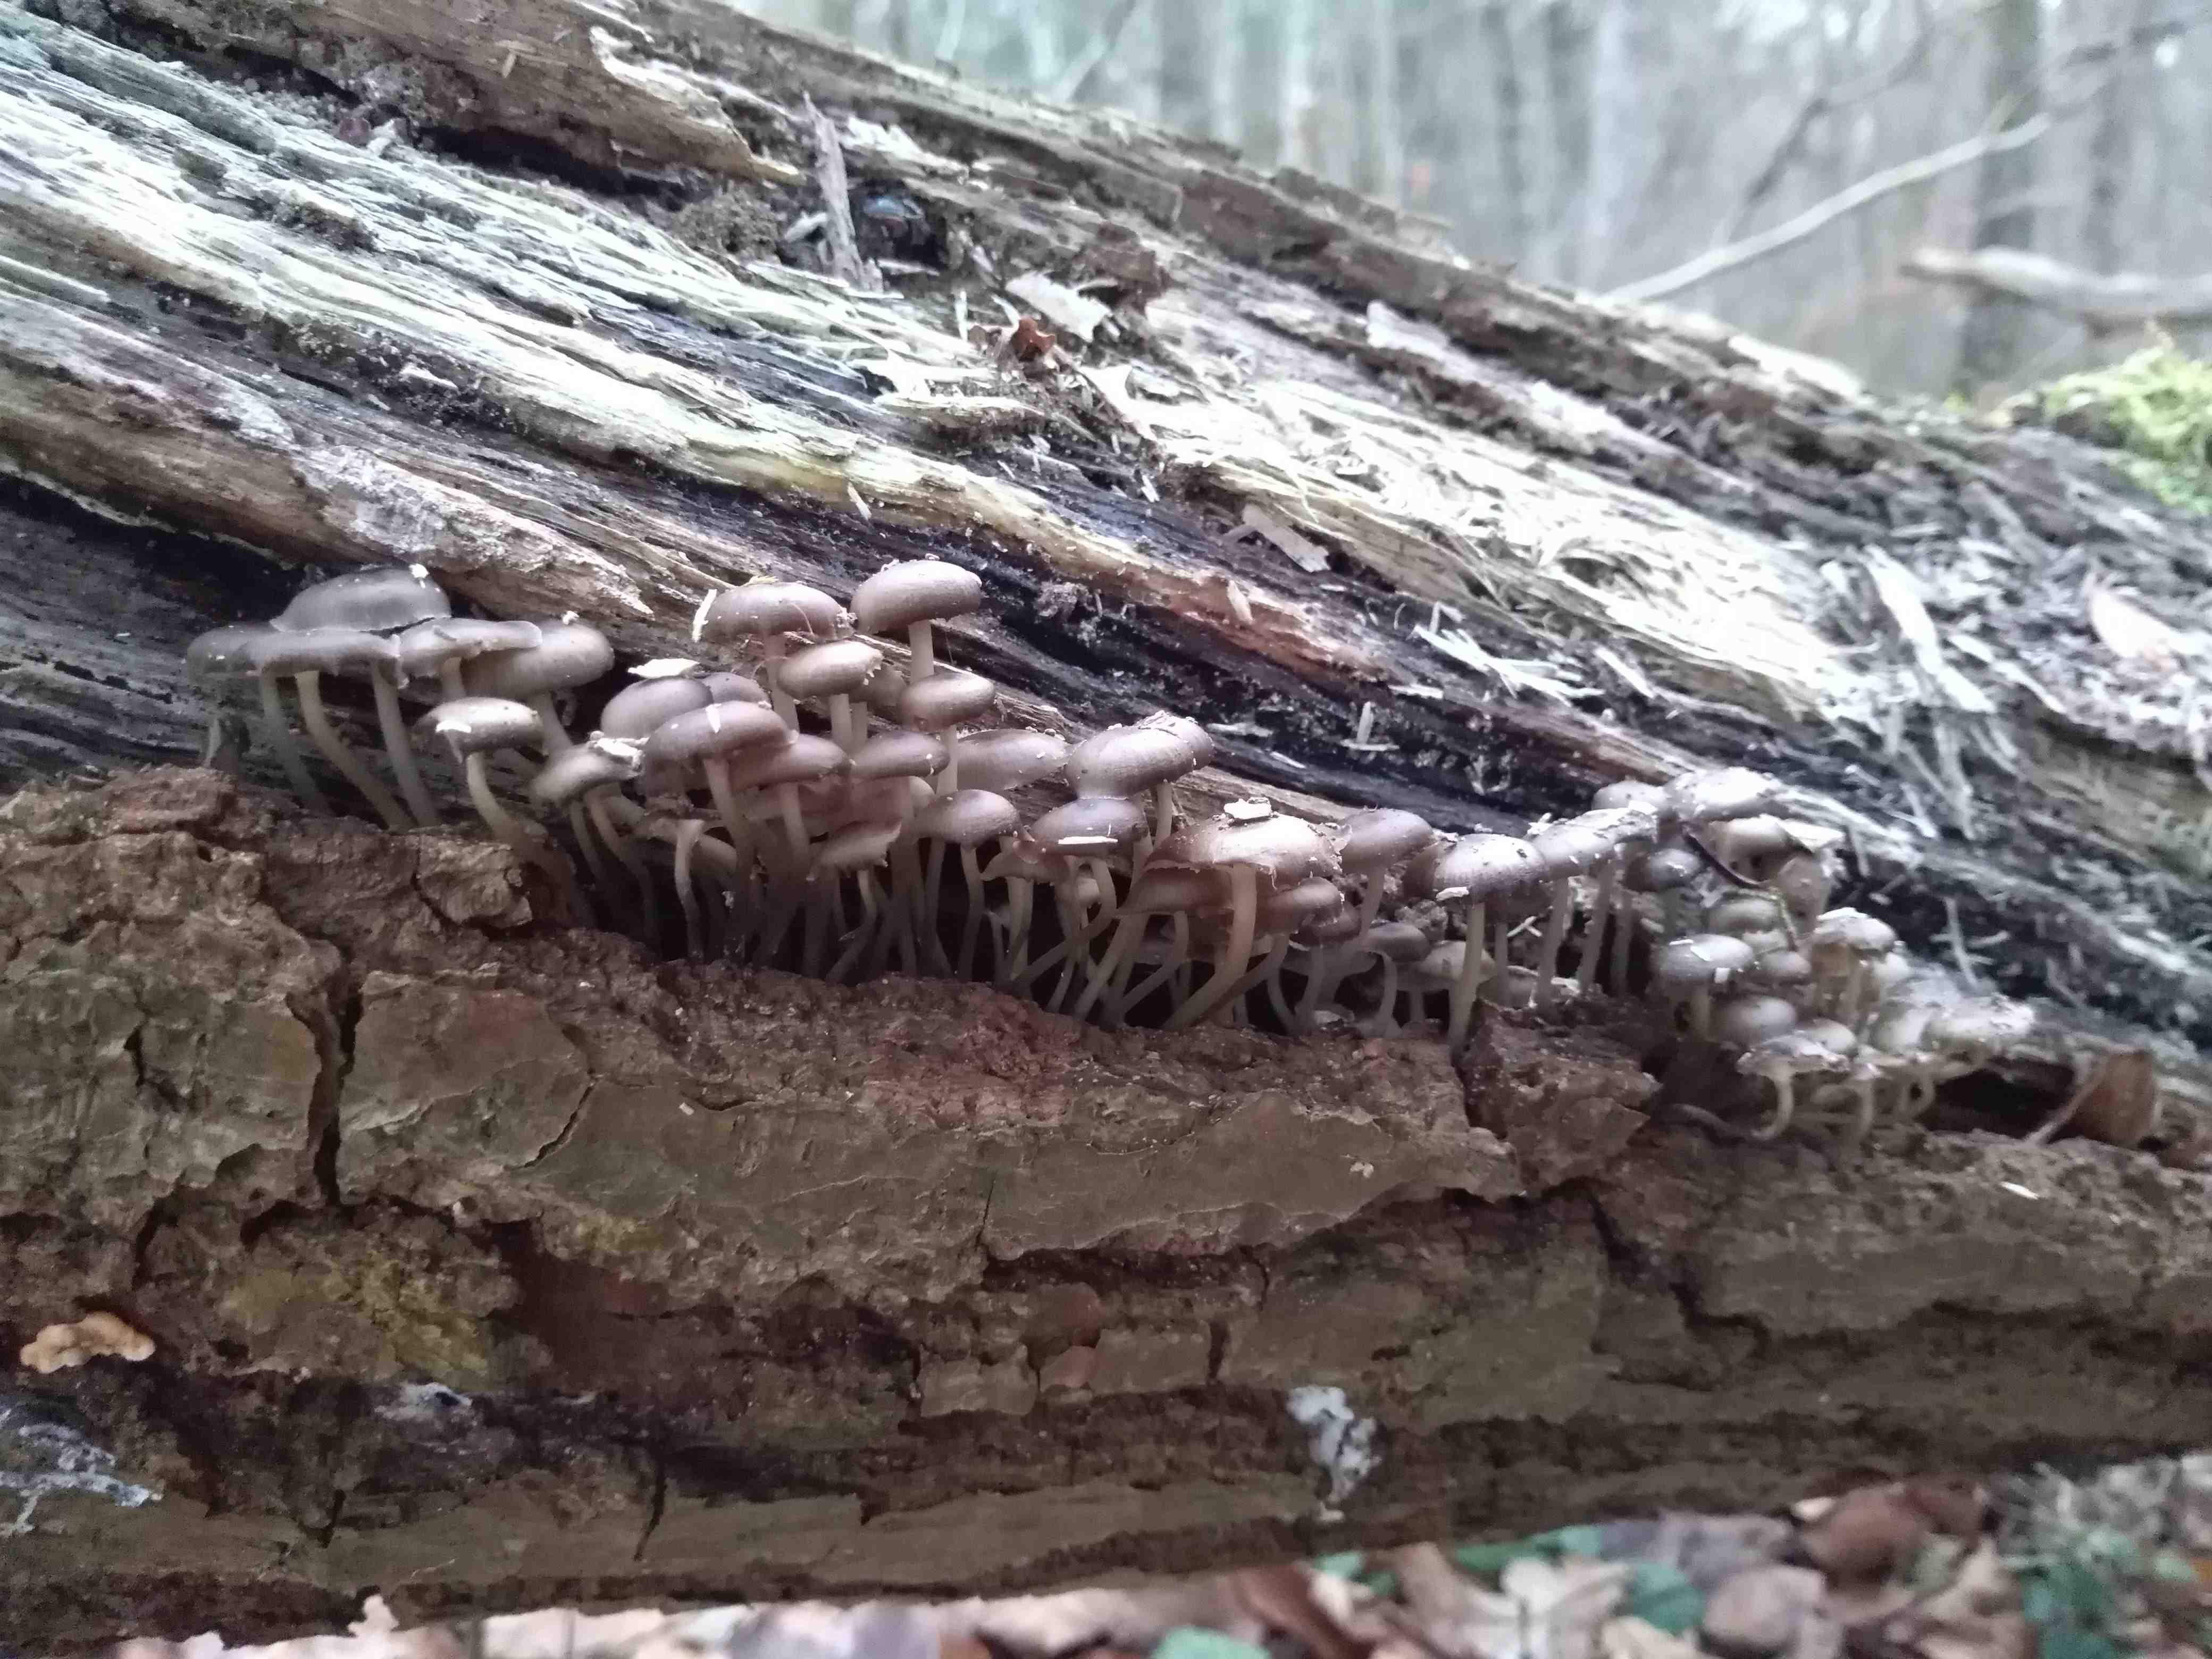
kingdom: Fungi
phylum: Basidiomycota
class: Agaricomycetes
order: Agaricales
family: Mycenaceae
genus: Mycena
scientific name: Mycena tintinnabulum
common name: vinter-huesvamp
